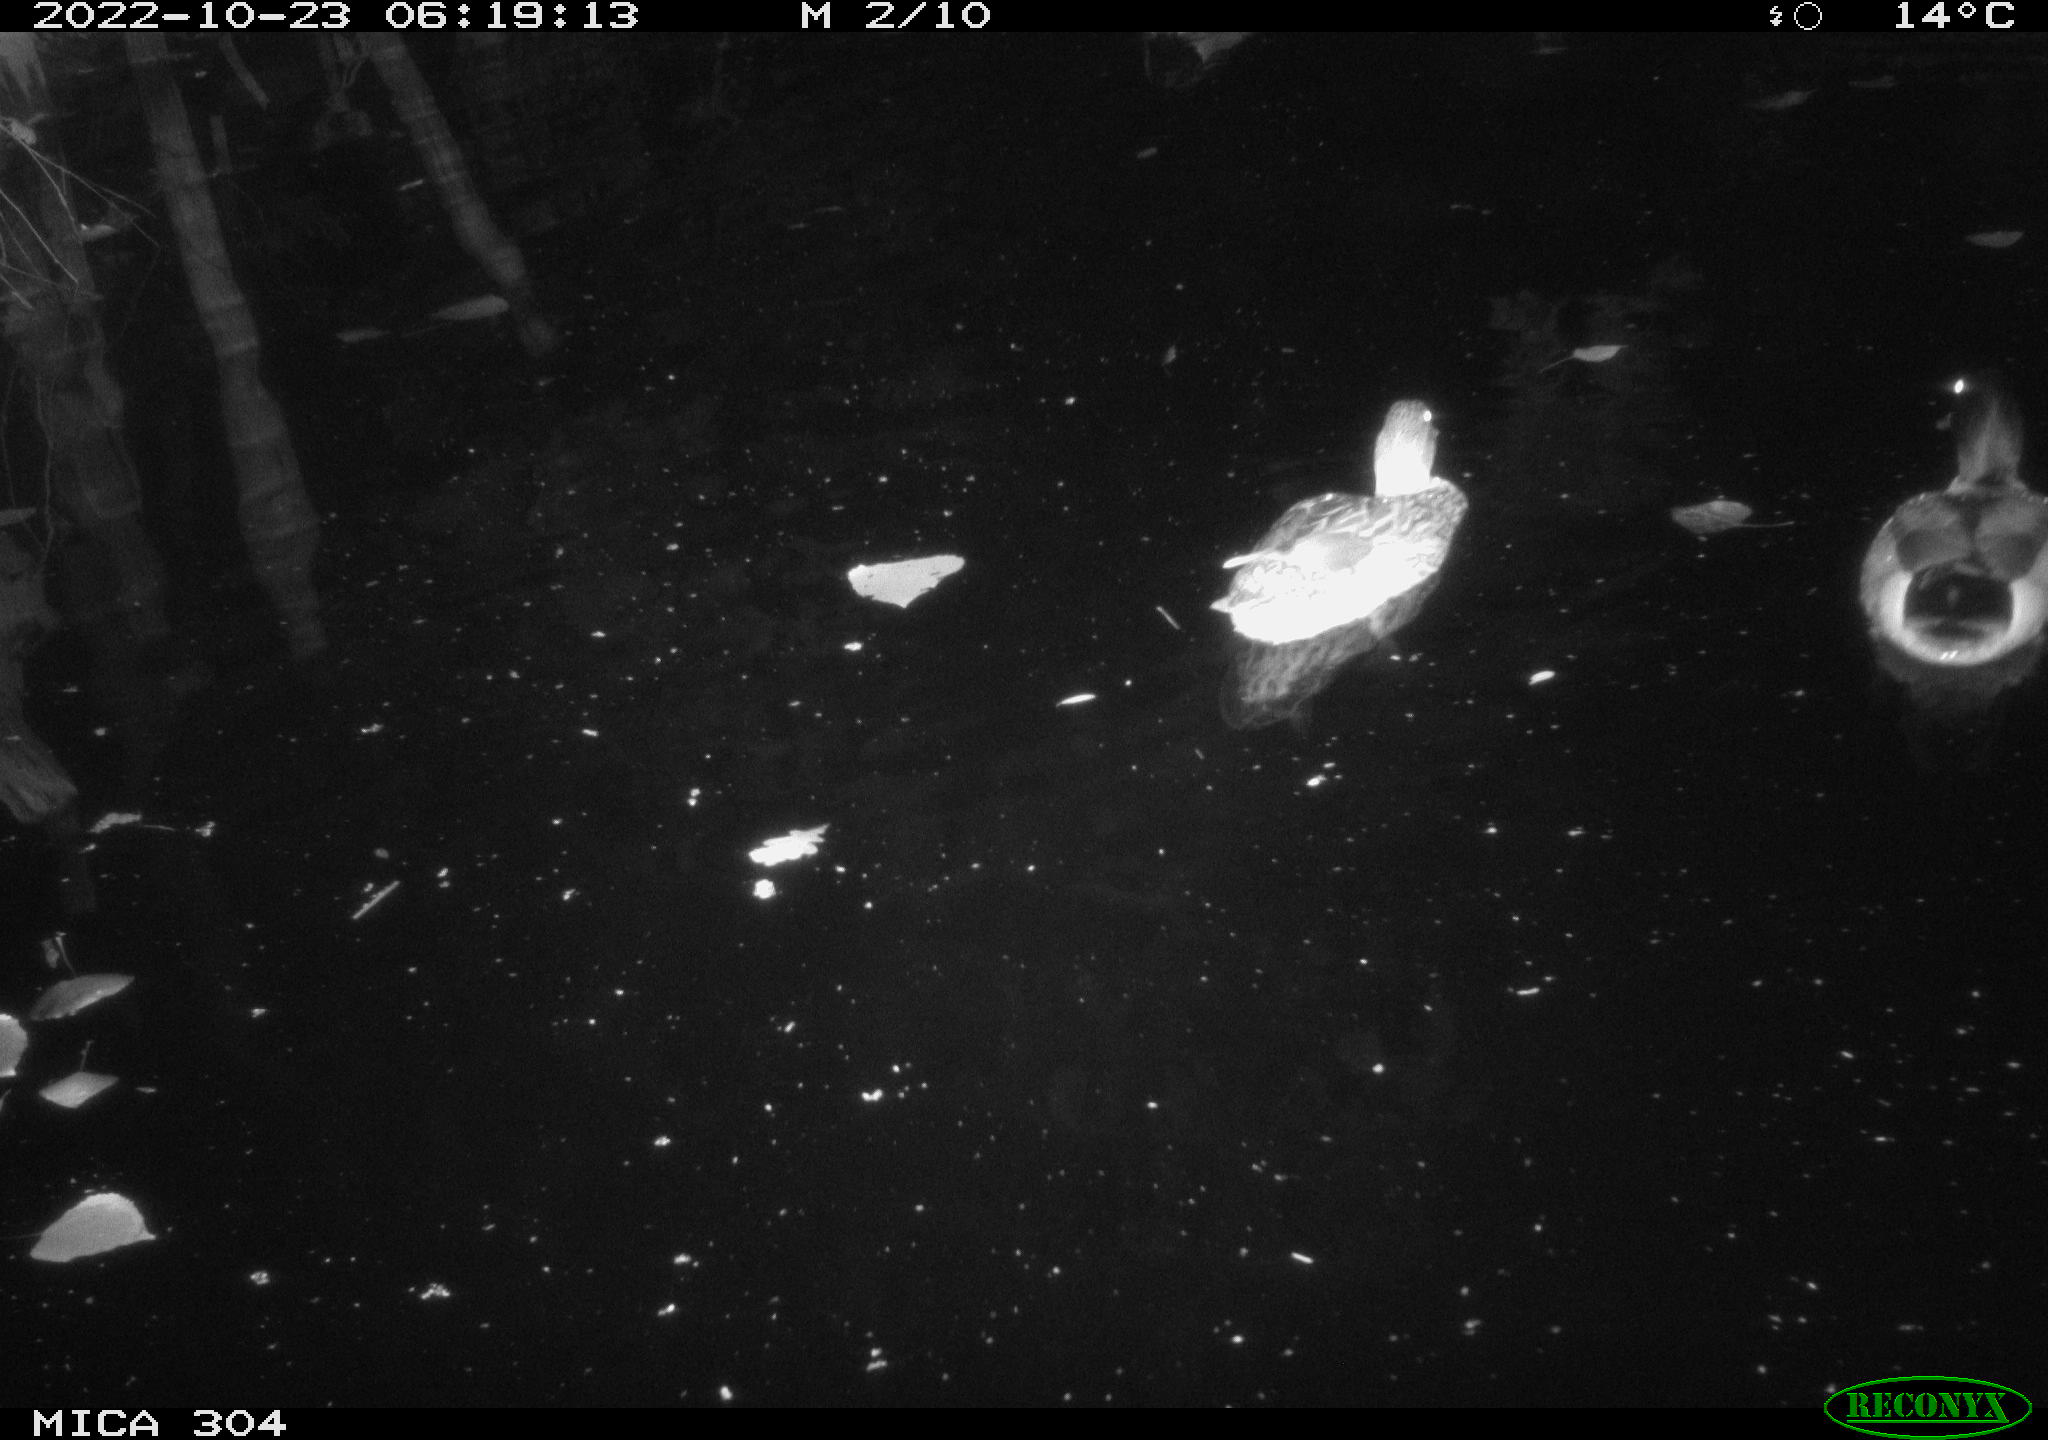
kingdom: Animalia
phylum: Chordata
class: Aves
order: Anseriformes
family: Anatidae
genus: Anas
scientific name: Anas
